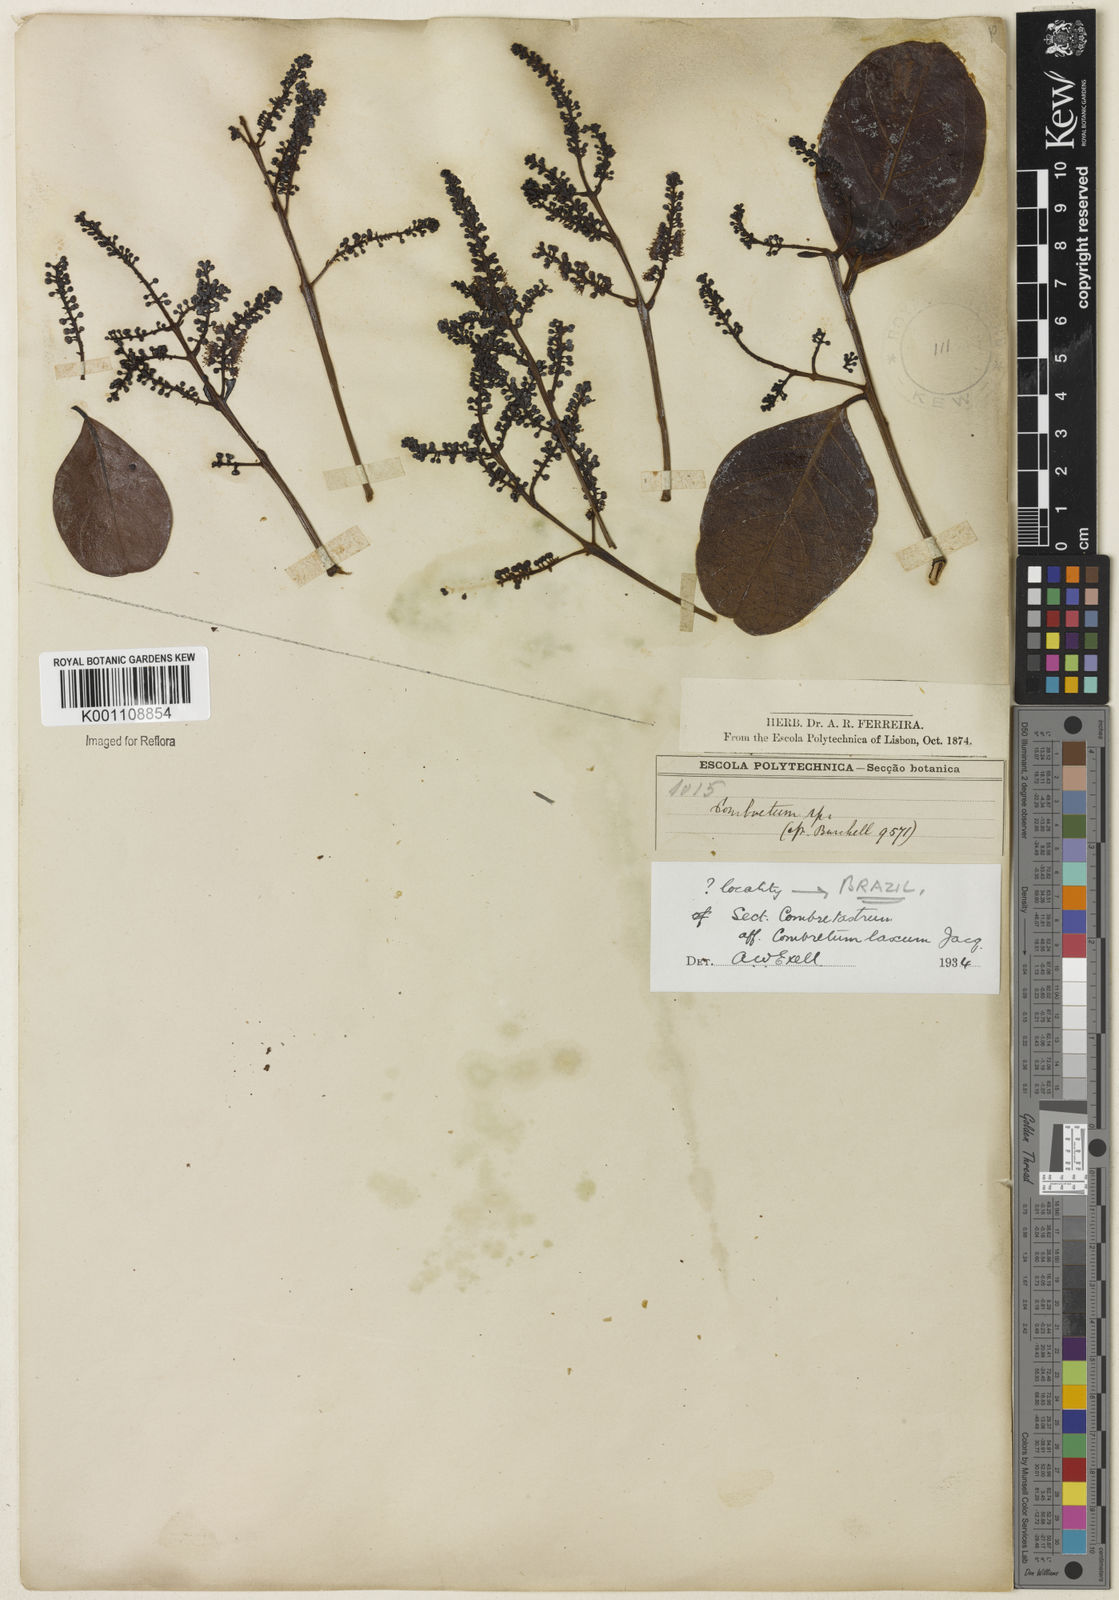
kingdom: Plantae
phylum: Tracheophyta
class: Magnoliopsida
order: Myrtales
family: Combretaceae
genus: Combretum
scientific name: Combretum laxum
